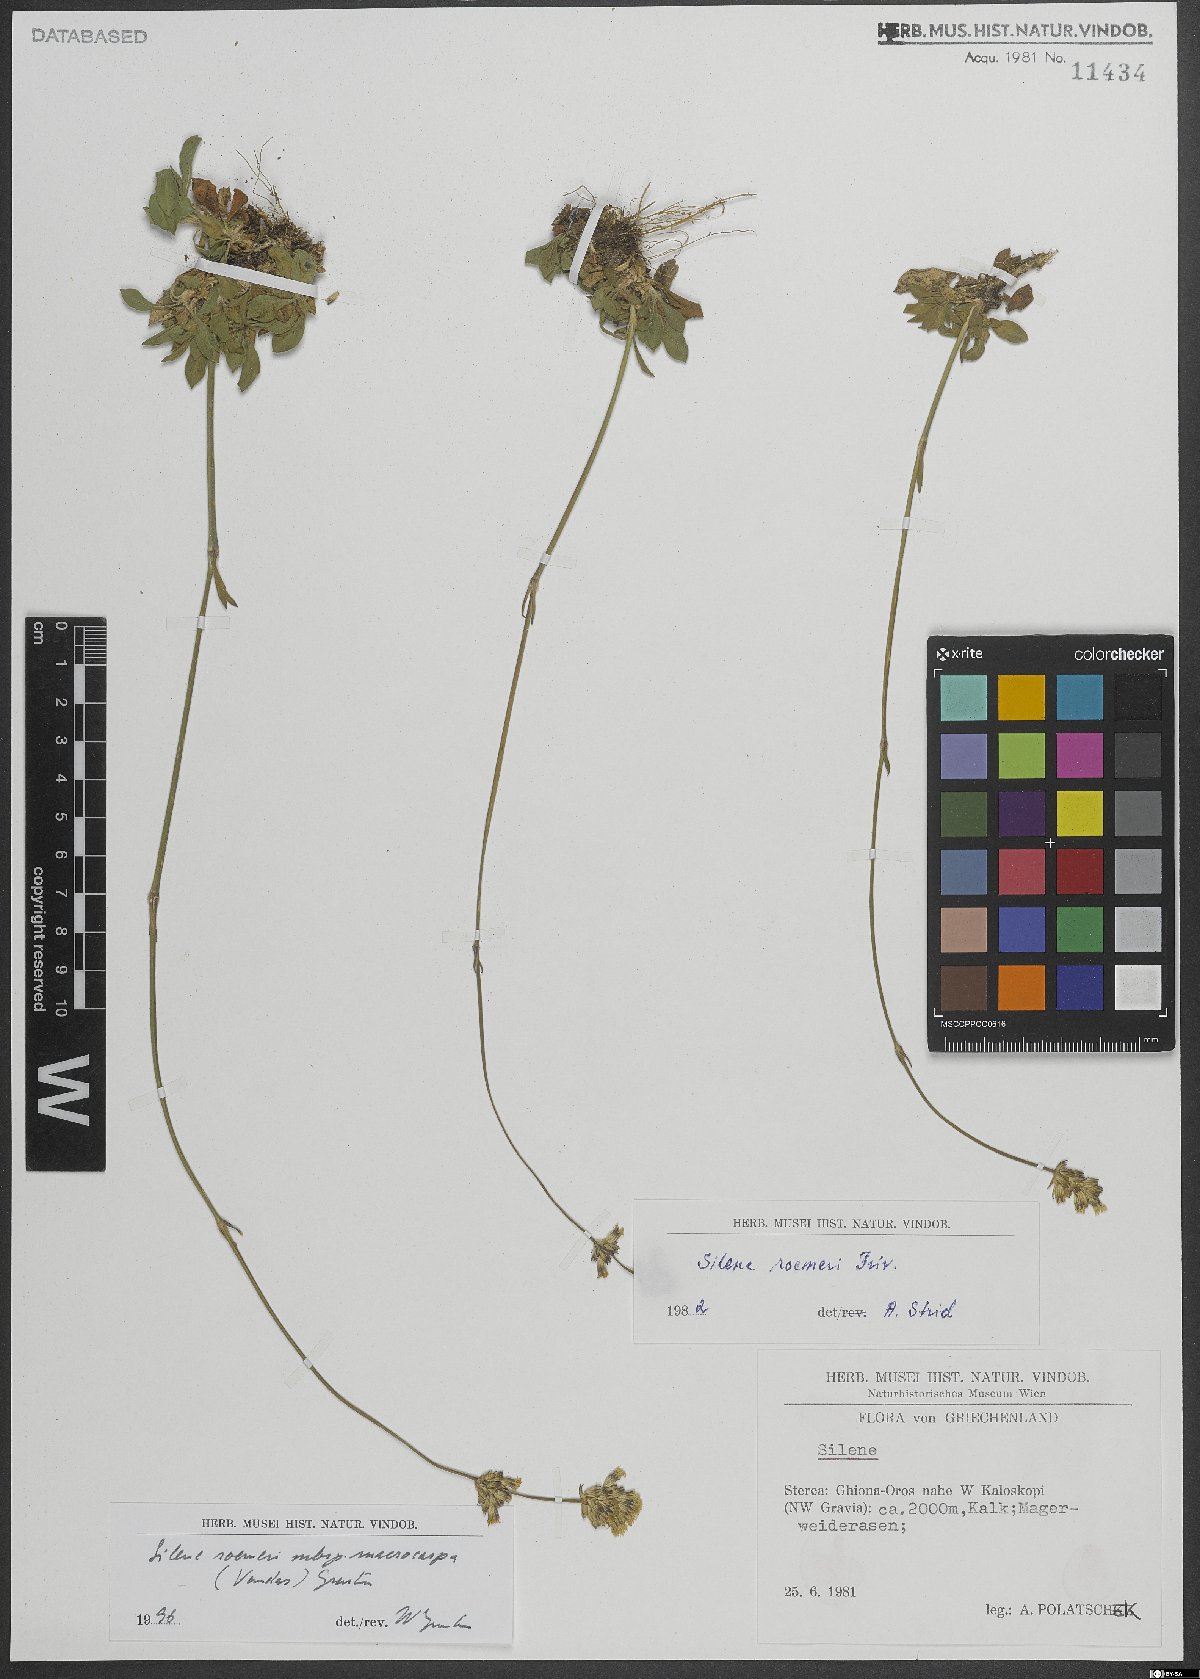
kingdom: Plantae
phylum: Tracheophyta
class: Magnoliopsida
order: Caryophyllales
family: Caryophyllaceae
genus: Silene
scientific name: Silene roemeri
